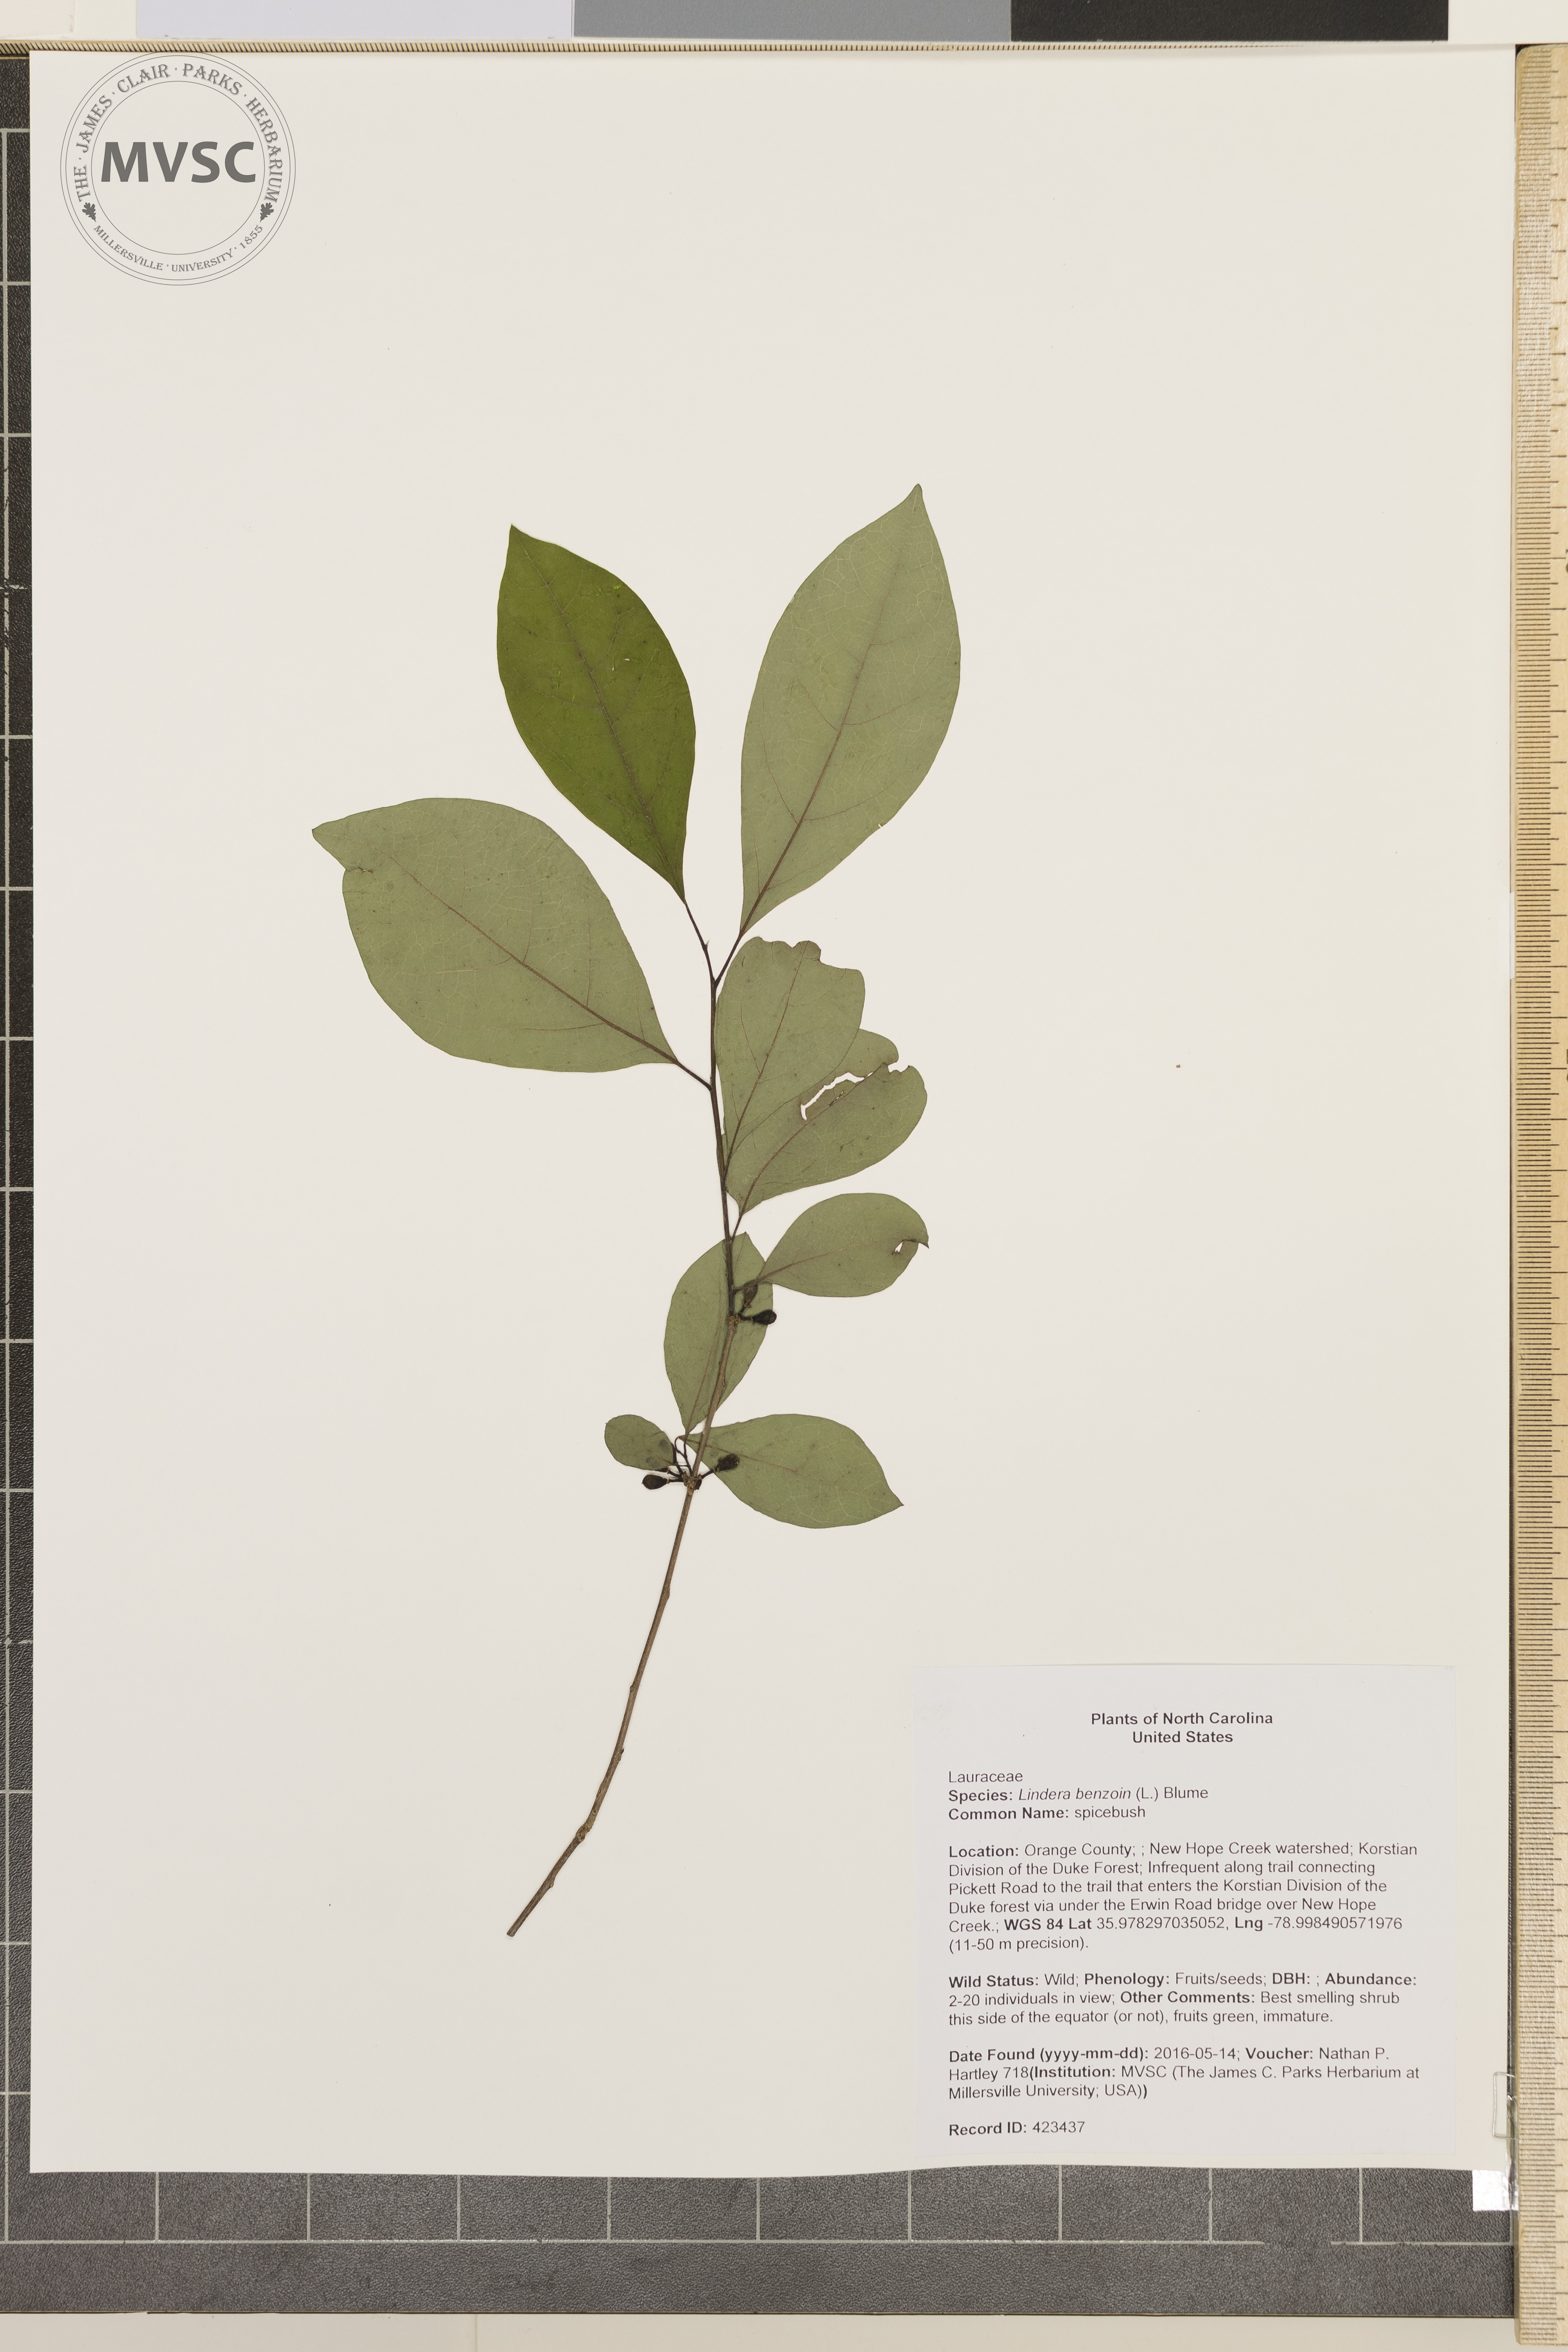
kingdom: Plantae
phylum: Tracheophyta
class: Magnoliopsida
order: Laurales
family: Lauraceae
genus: Lindera
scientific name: Lindera benzoin
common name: spicebush
